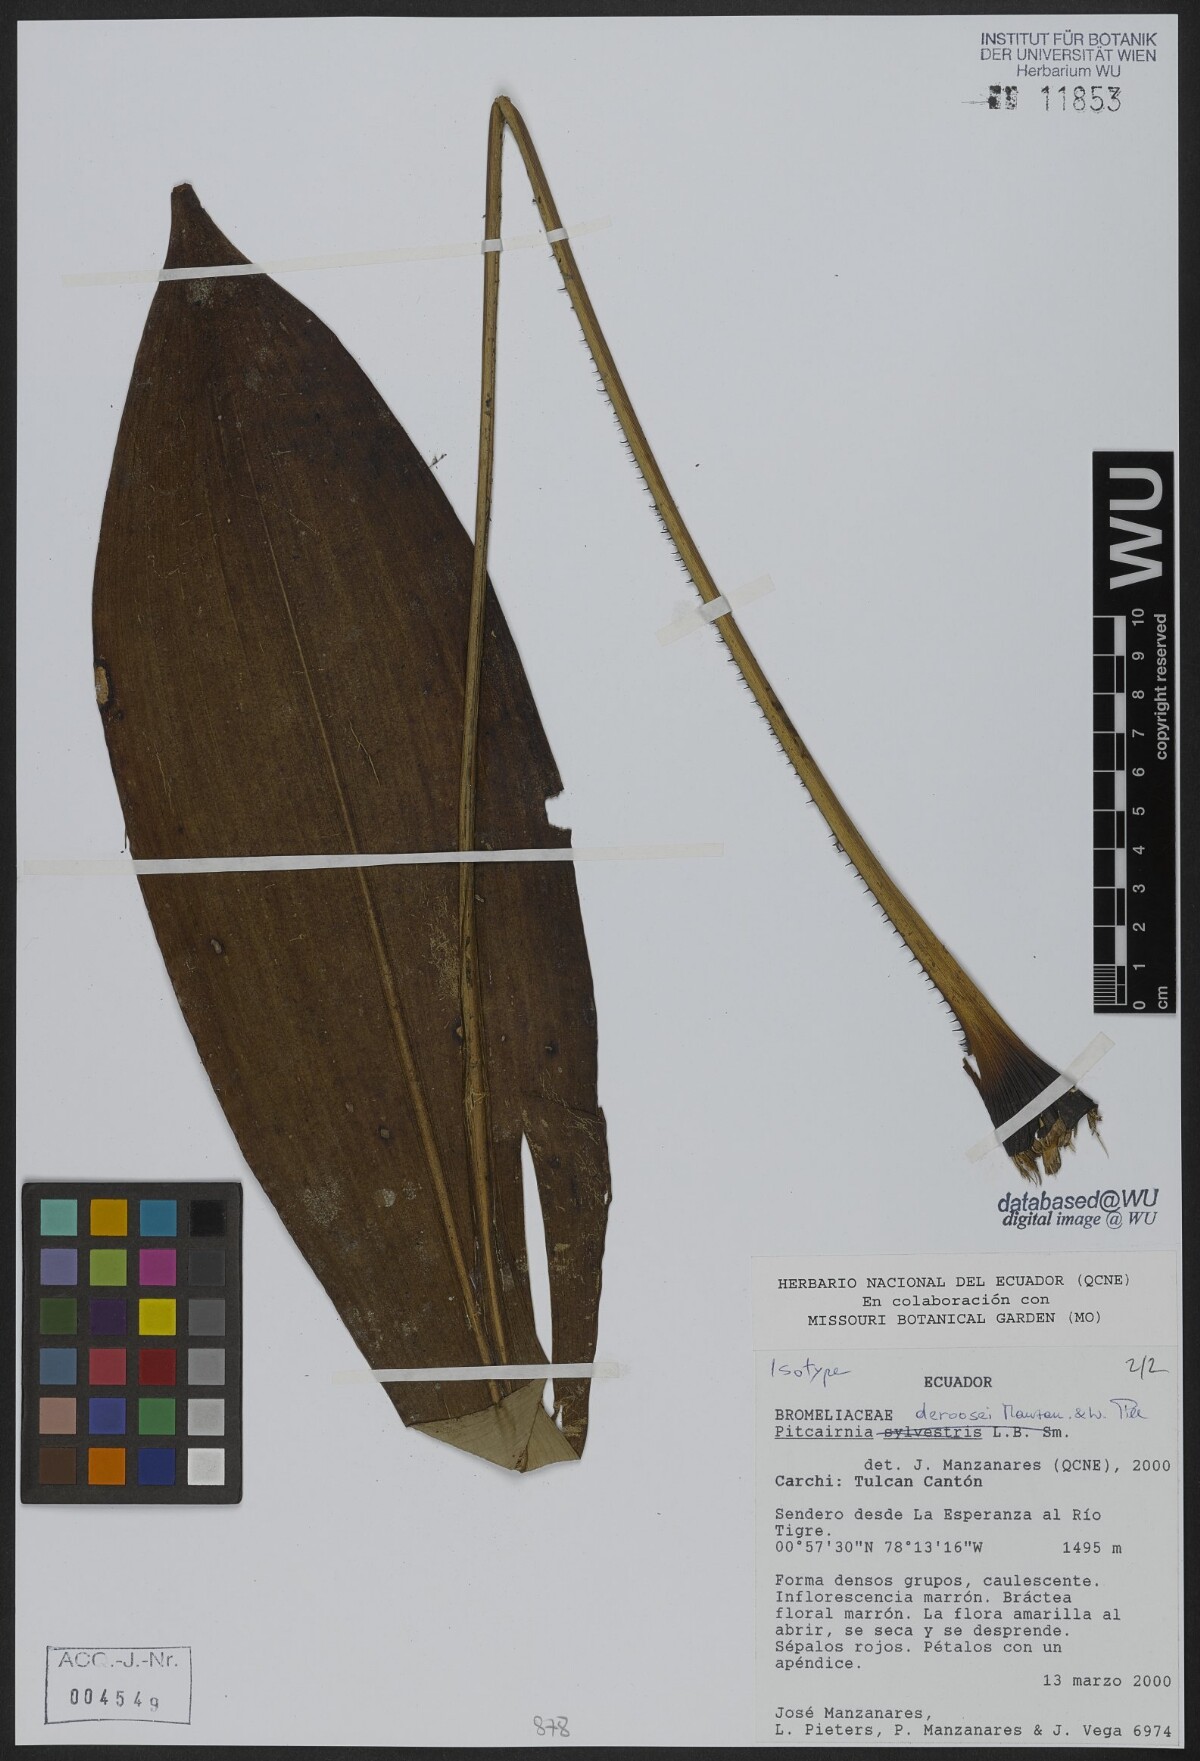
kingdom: Plantae
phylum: Tracheophyta
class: Liliopsida
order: Poales
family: Bromeliaceae
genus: Pitcairnia
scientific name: Pitcairnia deroosei
